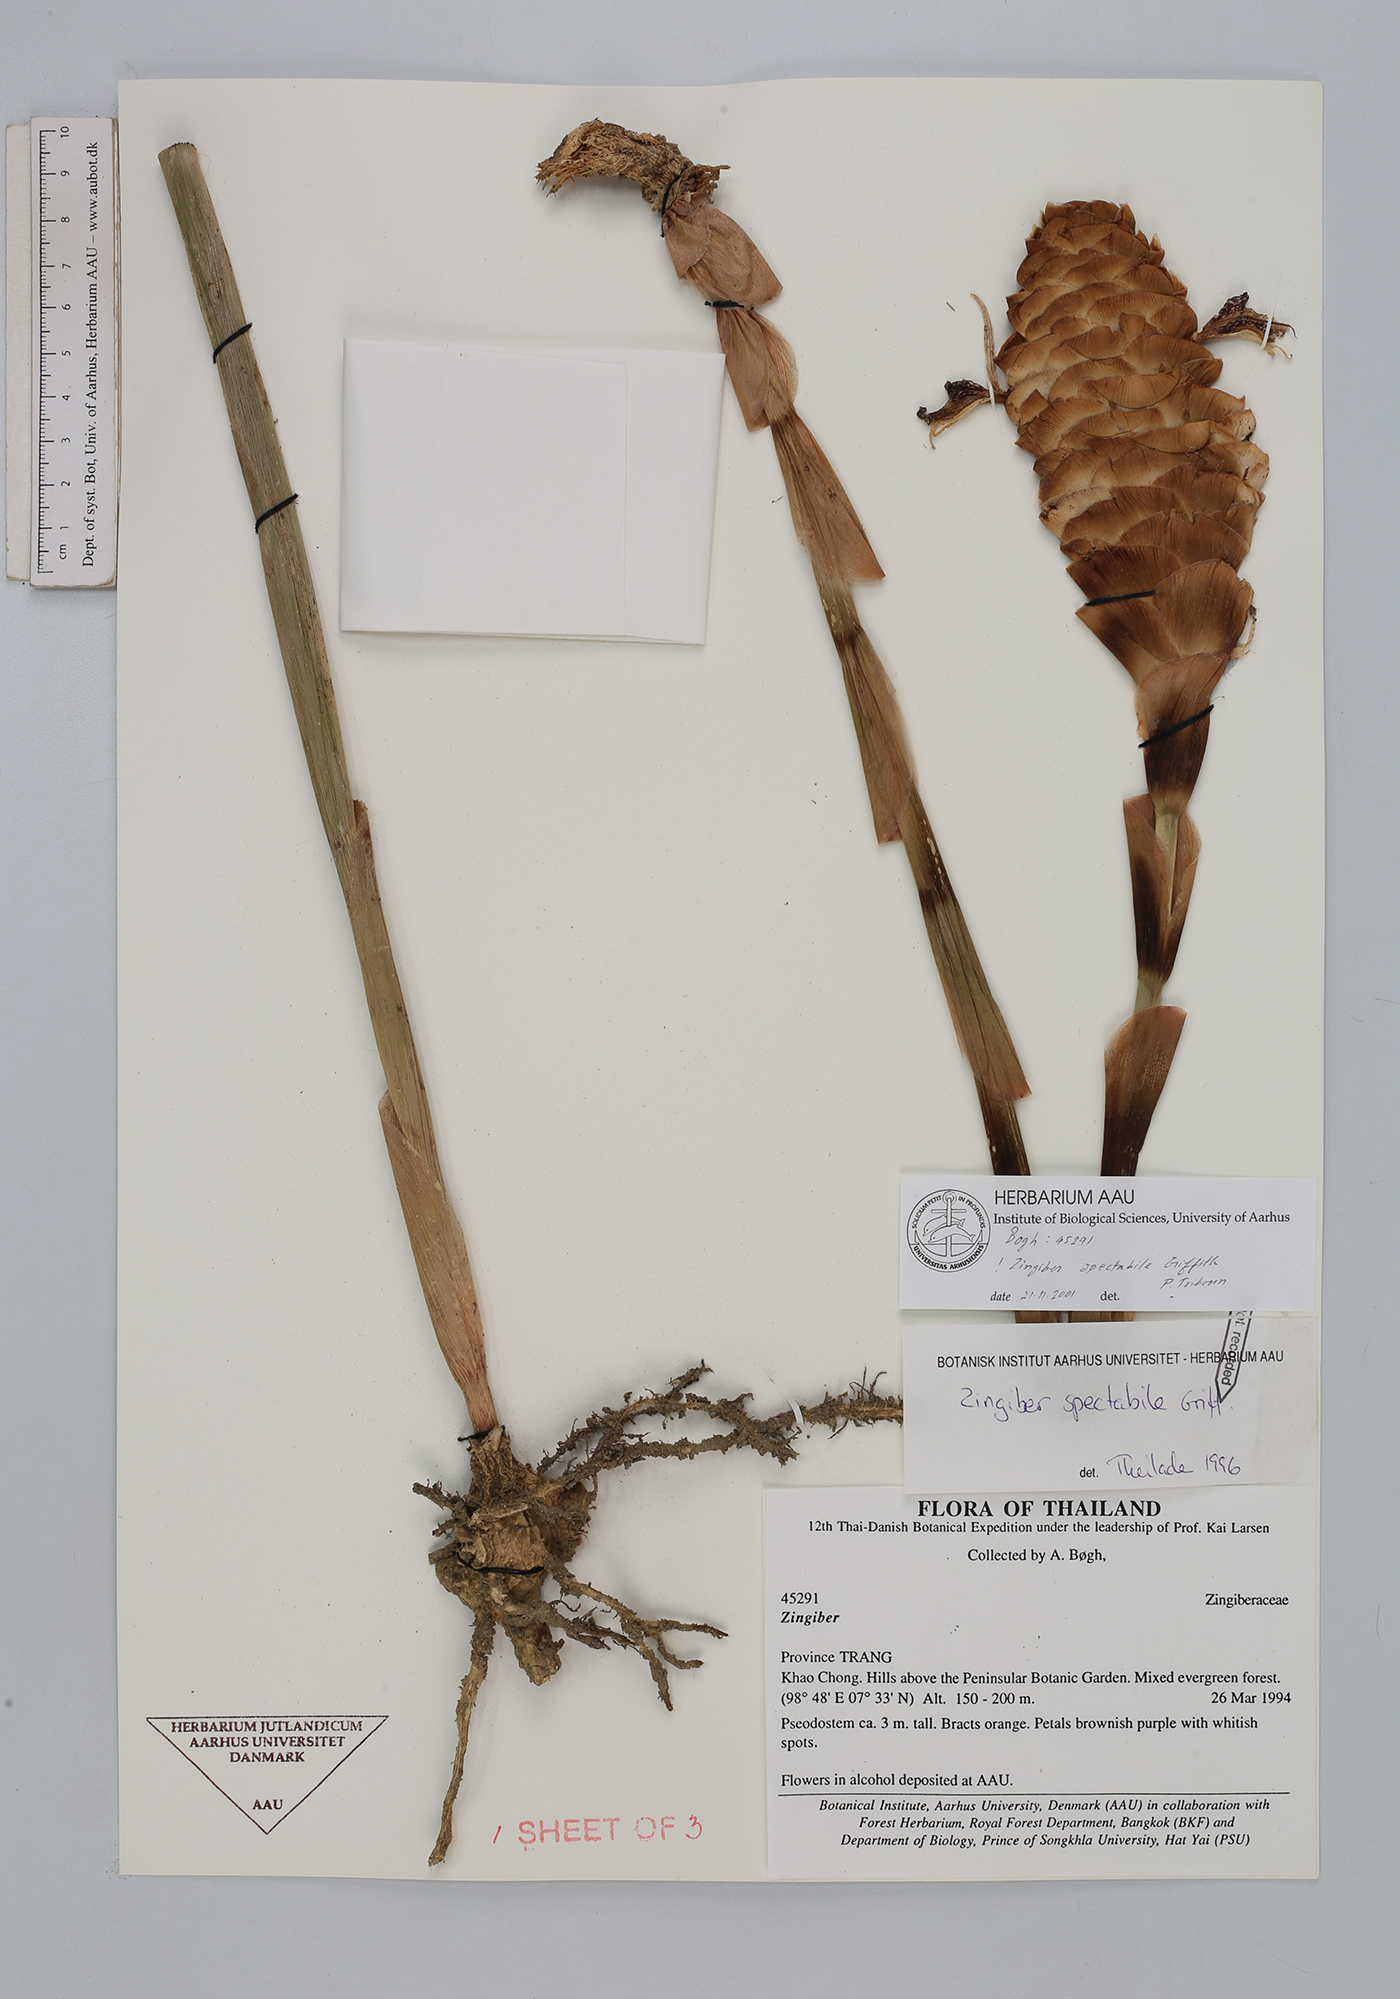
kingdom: Plantae
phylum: Tracheophyta
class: Liliopsida
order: Zingiberales
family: Zingiberaceae
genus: Zingiber
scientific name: Zingiber spectabile
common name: Beehive ginger
